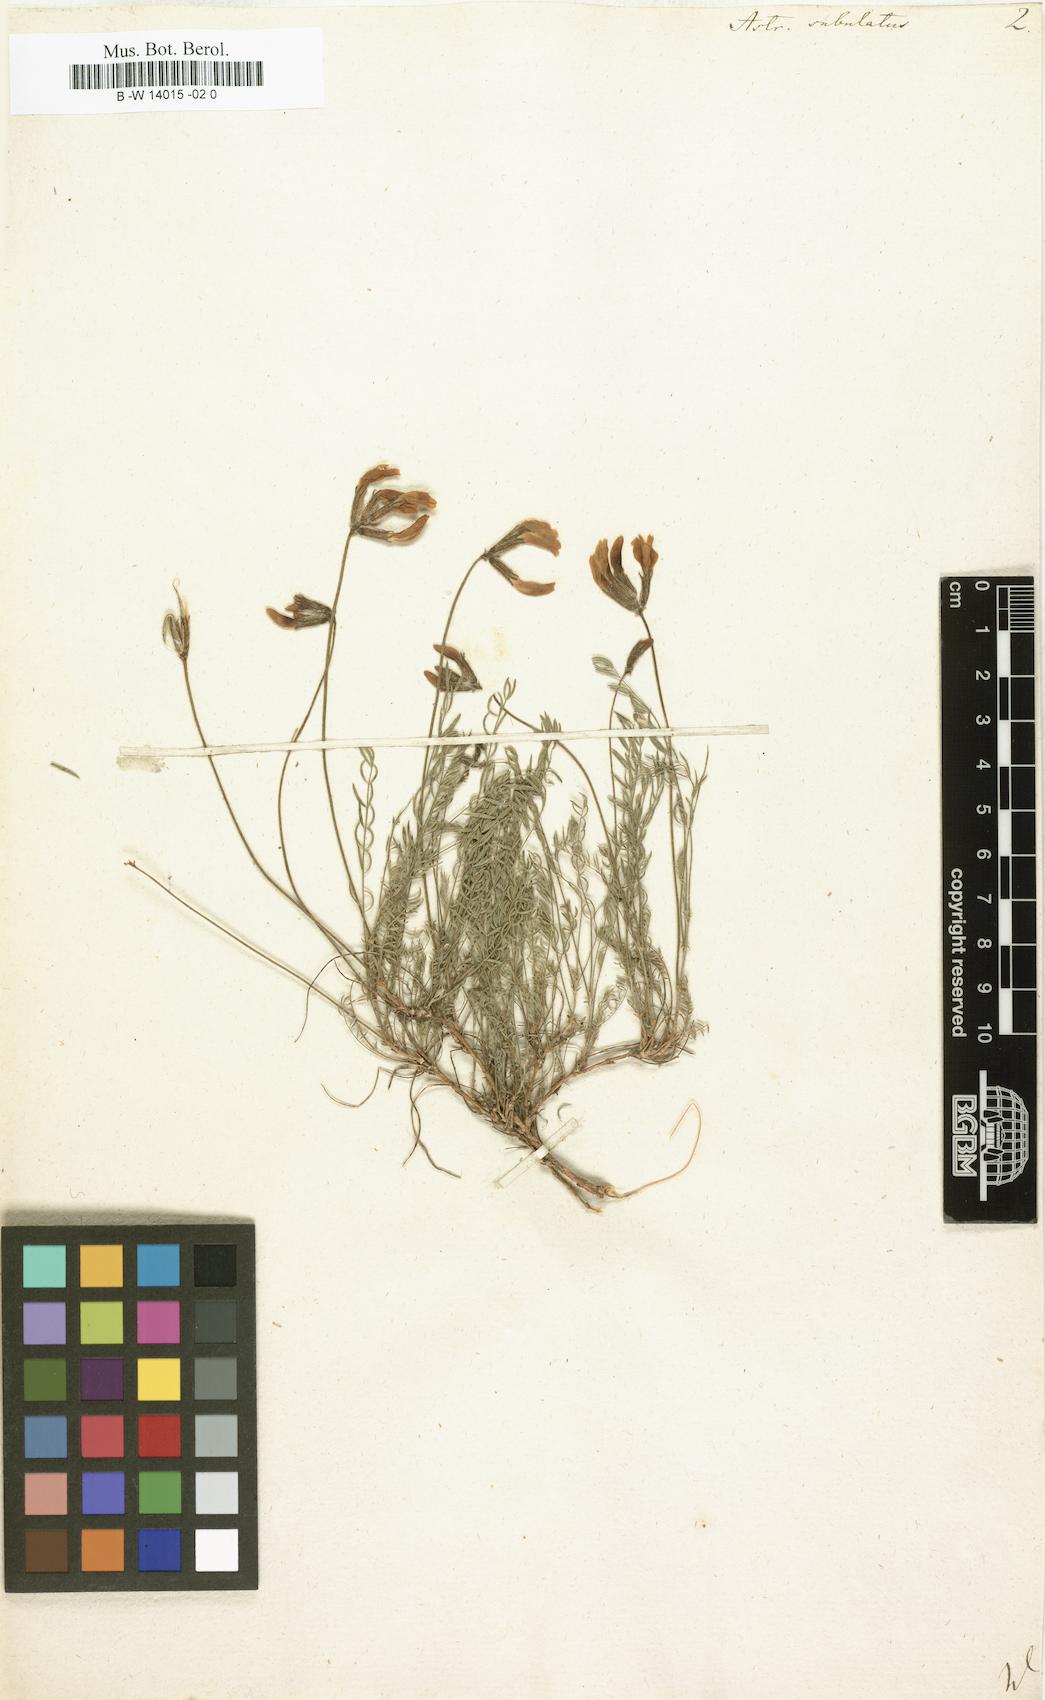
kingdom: Plantae
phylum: Tracheophyta
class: Magnoliopsida
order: Fabales
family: Fabaceae
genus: Astragalus
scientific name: Astragalus anfractuosus
